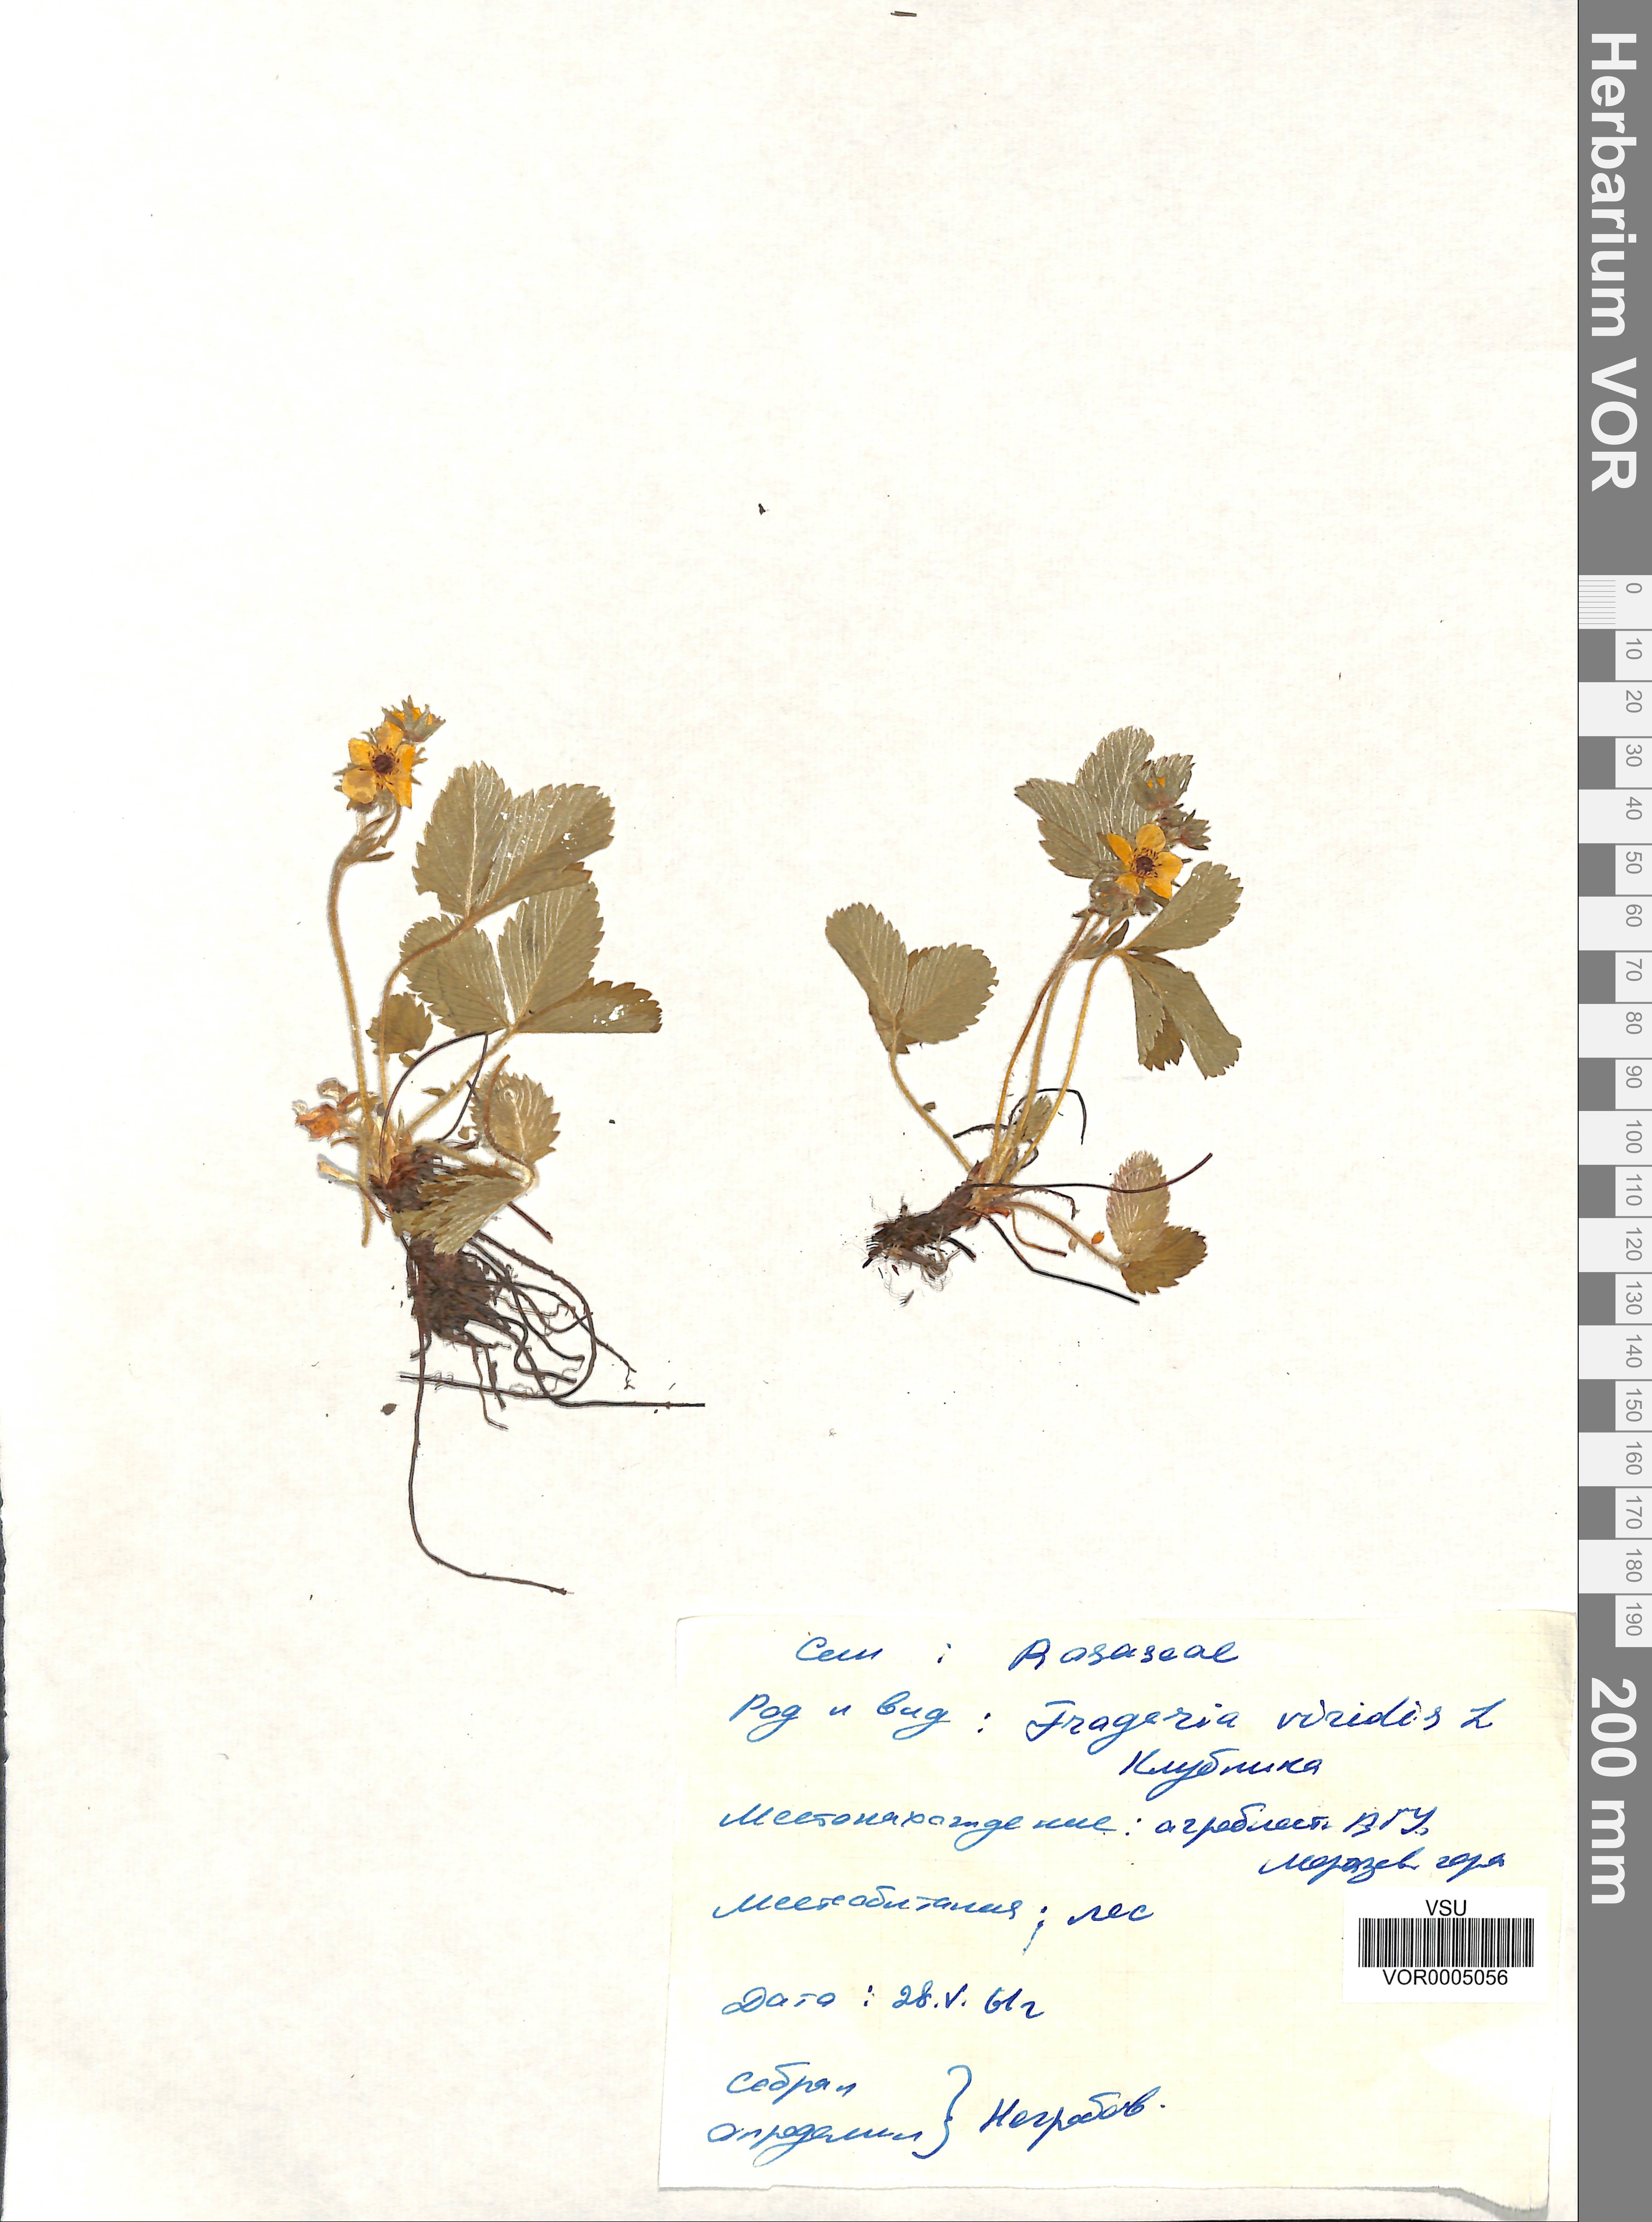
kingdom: Plantae
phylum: Tracheophyta
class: Magnoliopsida
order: Rosales
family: Rosaceae
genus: Fragaria
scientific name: Fragaria viridis
